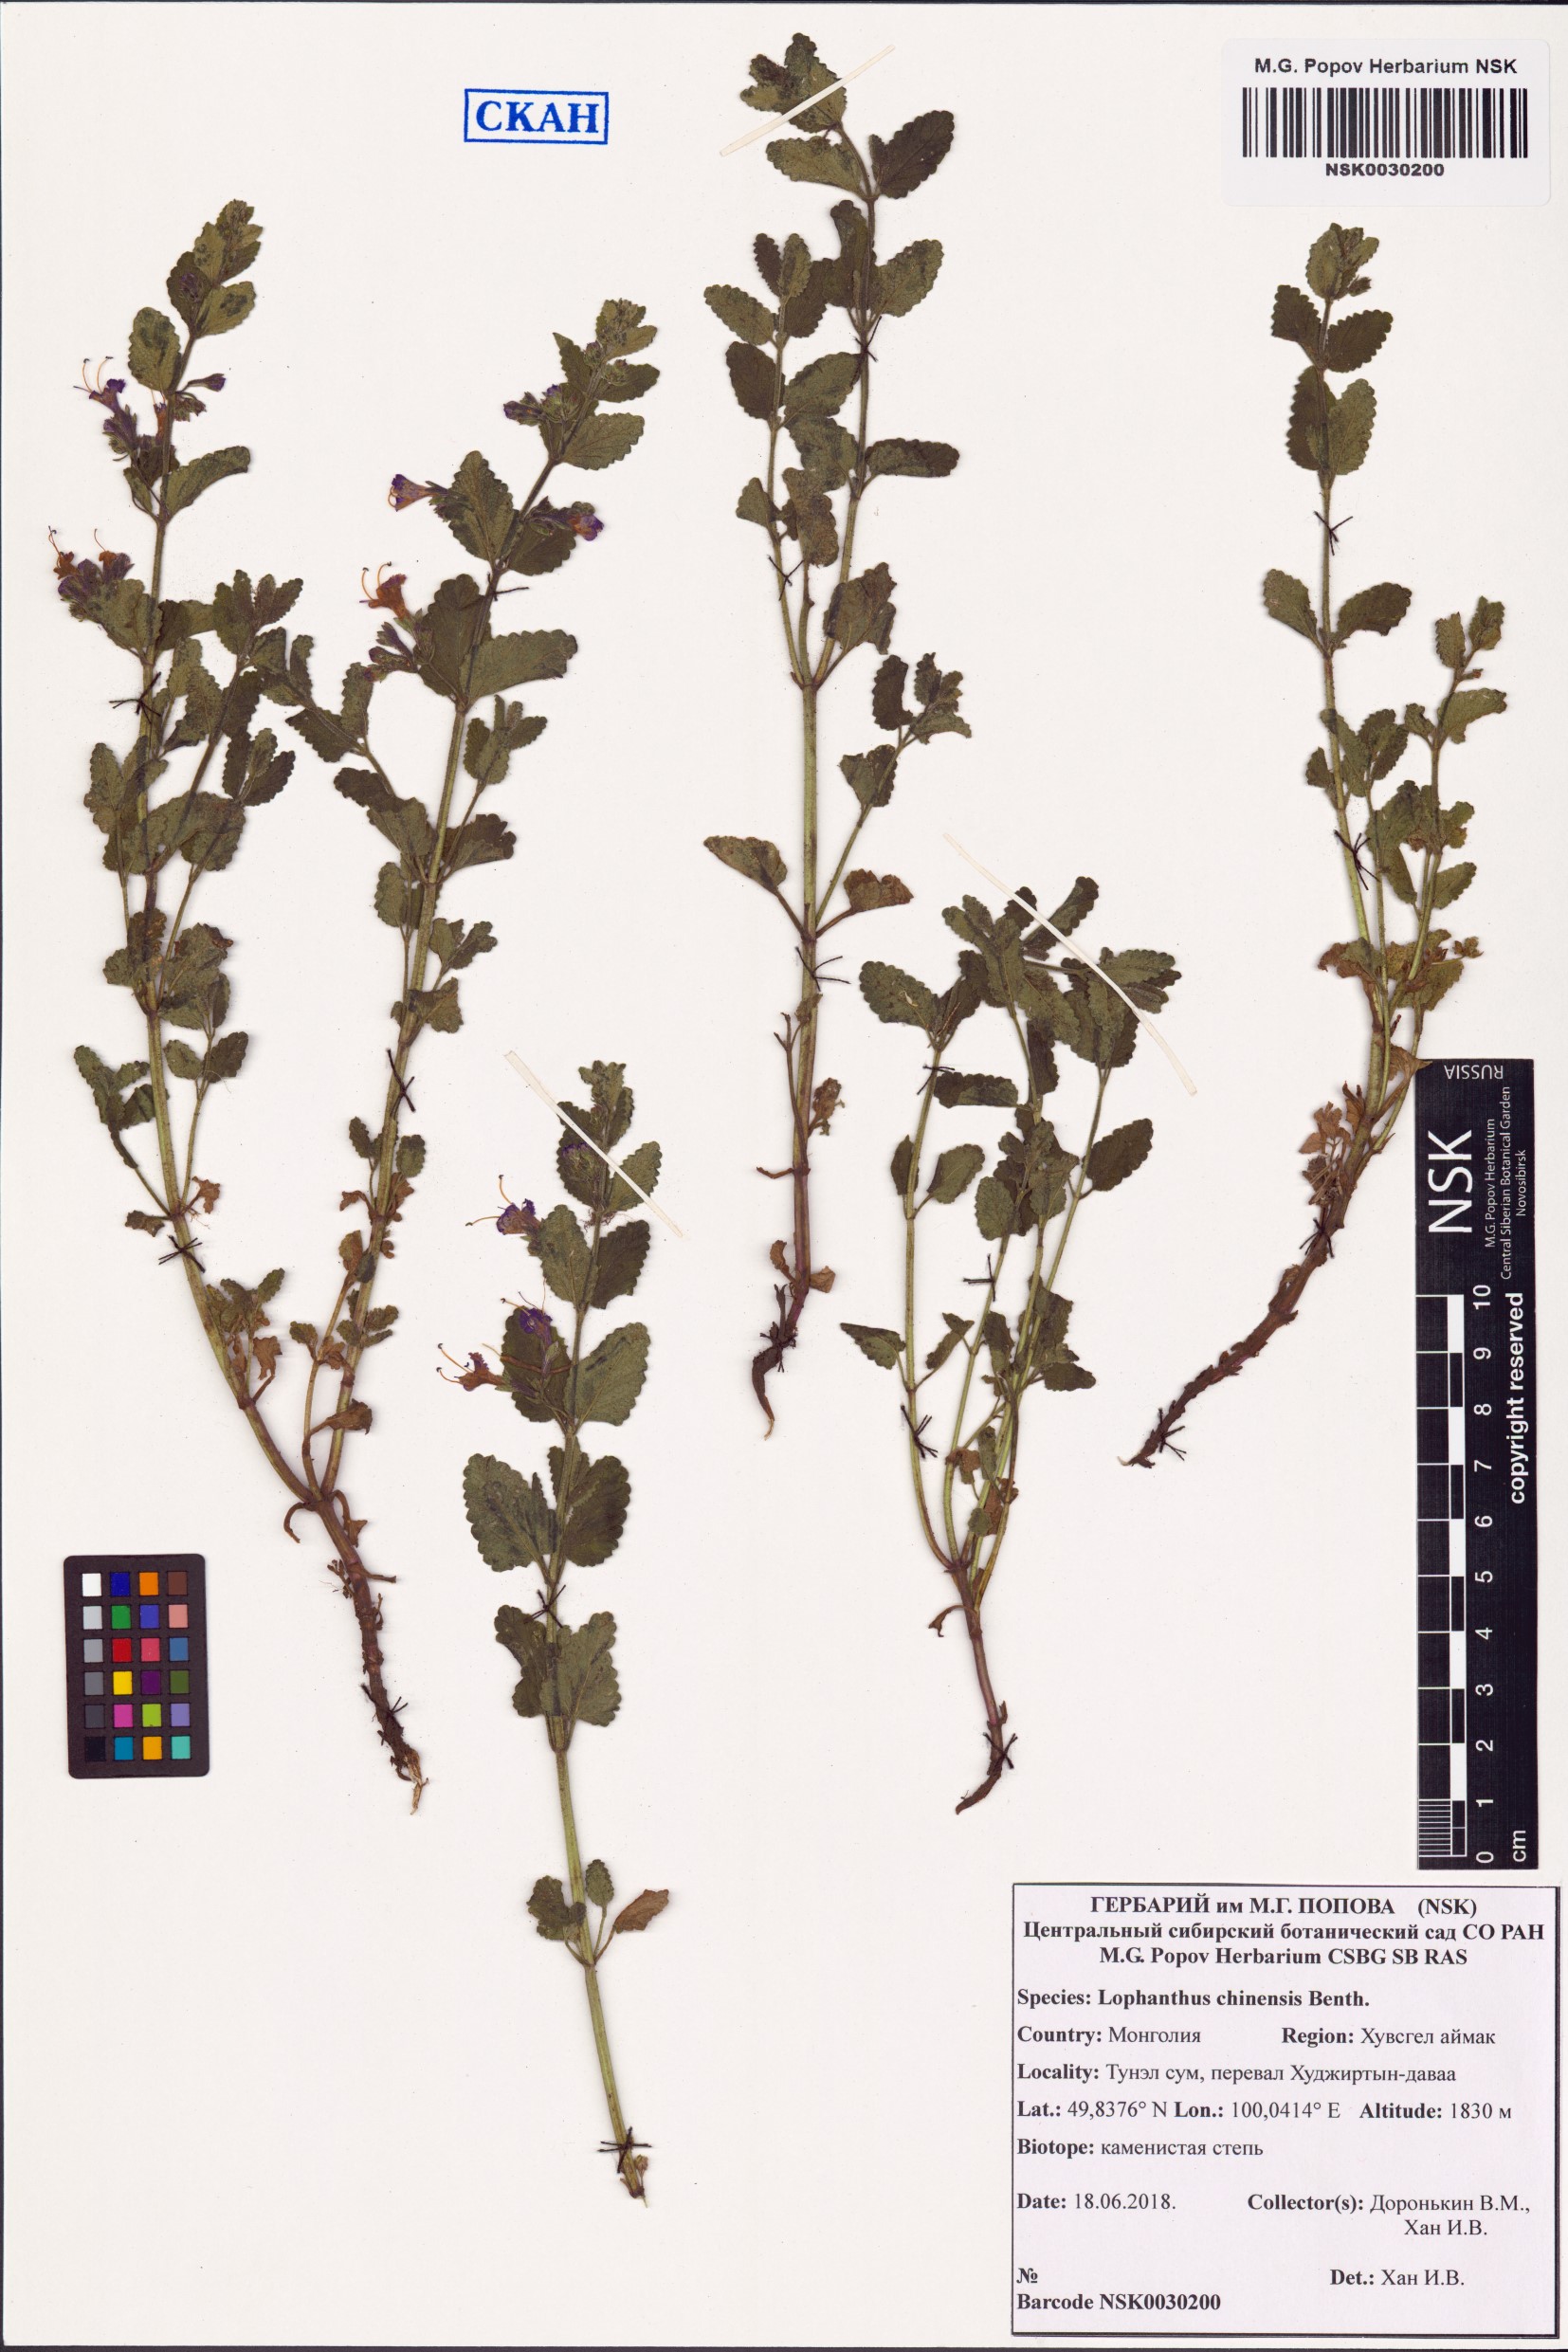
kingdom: Plantae
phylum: Tracheophyta
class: Magnoliopsida
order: Lamiales
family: Lamiaceae
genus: Nepeta
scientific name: Nepeta lophanthus
